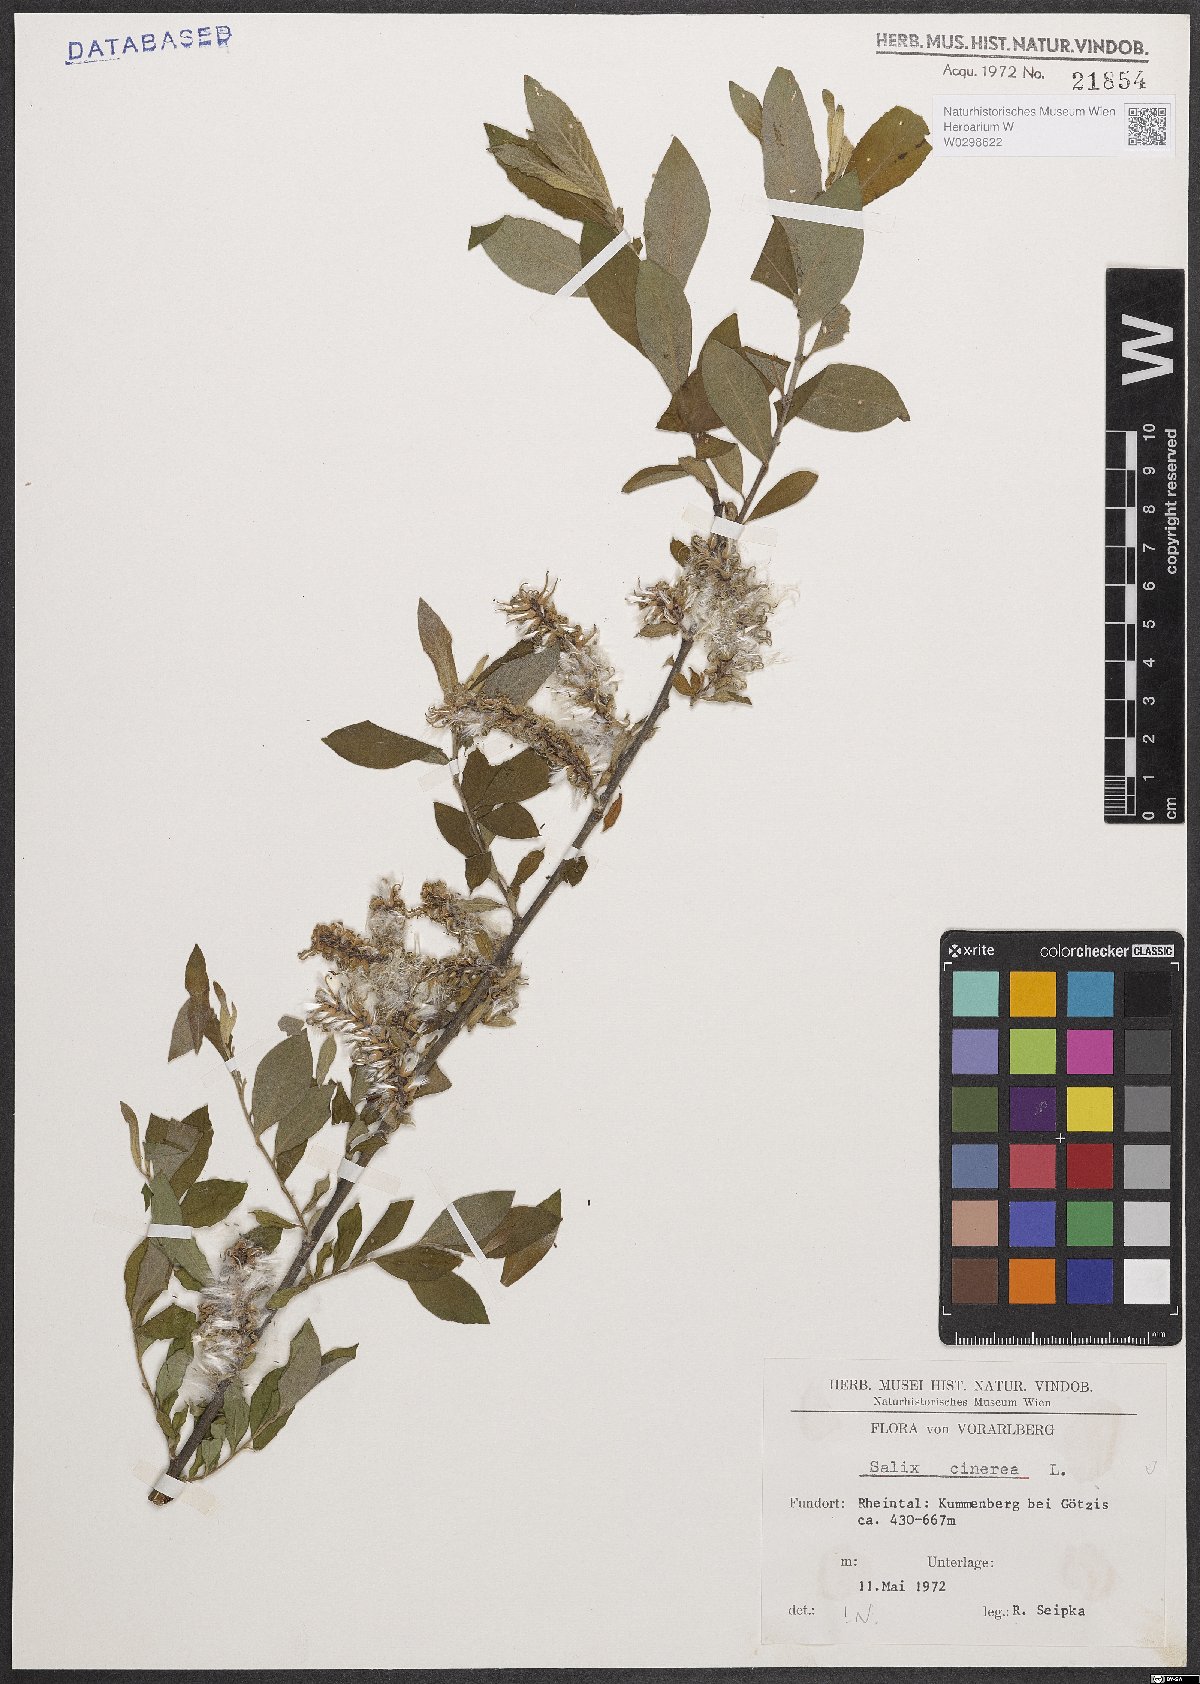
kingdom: Plantae
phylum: Tracheophyta
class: Magnoliopsida
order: Malpighiales
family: Salicaceae
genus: Salix
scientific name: Salix cinerea
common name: Common sallow
